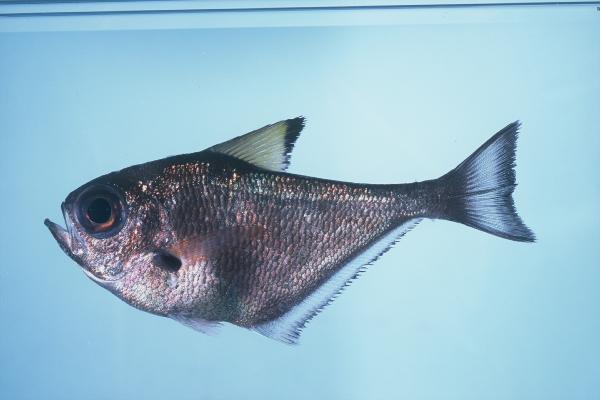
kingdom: Animalia
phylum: Chordata
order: Perciformes
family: Pempheridae
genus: Pempheris
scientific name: Pempheris
